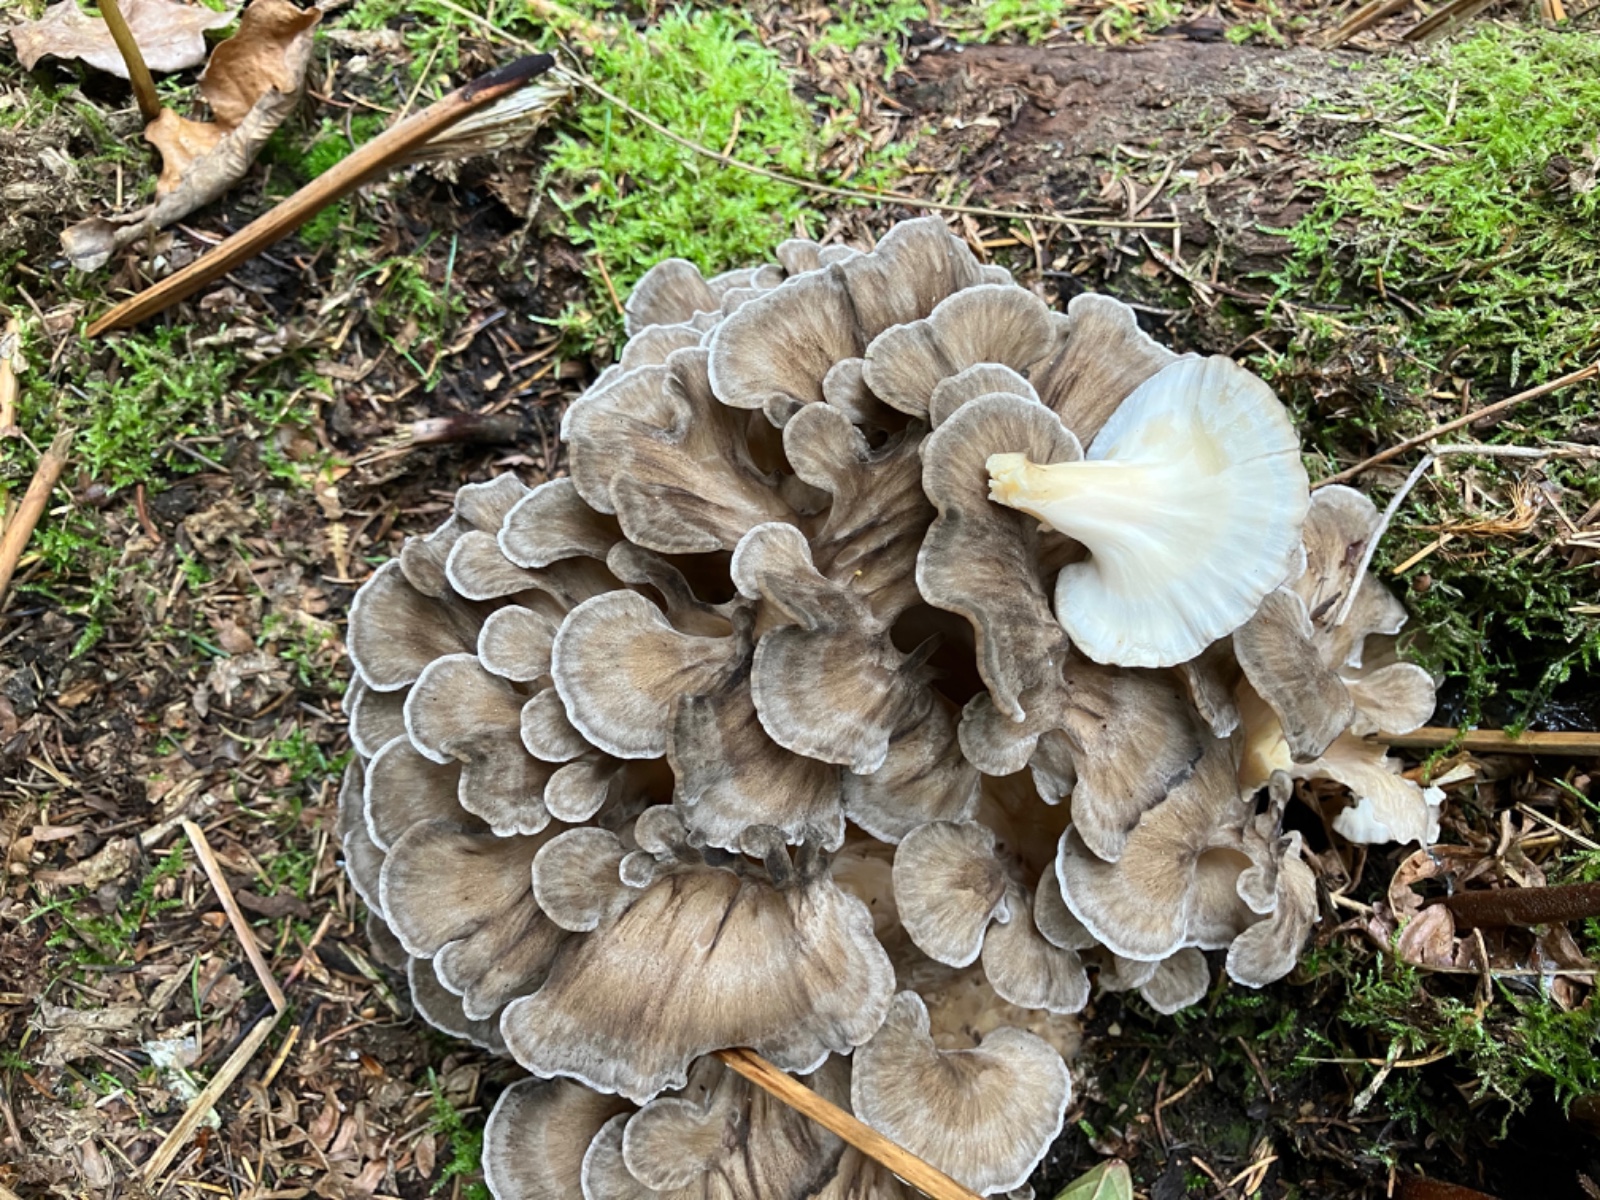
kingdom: Fungi
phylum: Basidiomycota
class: Agaricomycetes
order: Polyporales
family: Grifolaceae
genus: Grifola
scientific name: Grifola frondosa
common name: tueporesvamp
